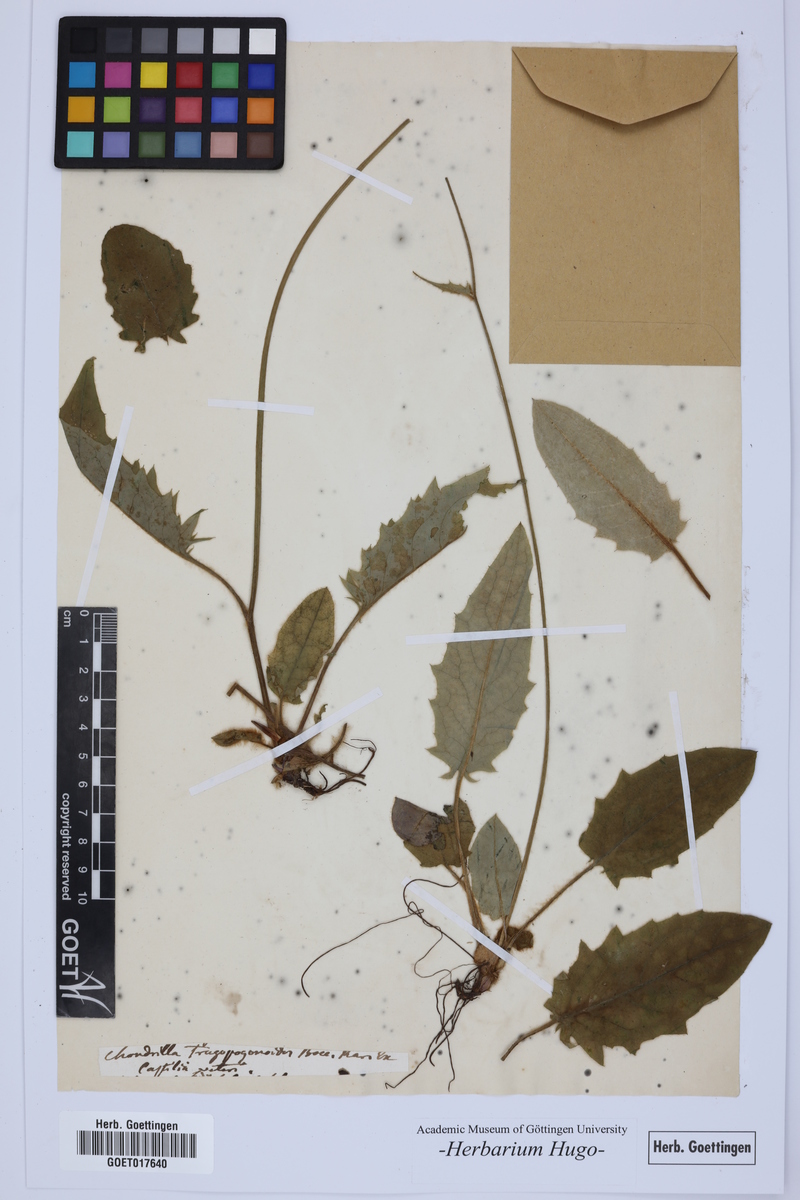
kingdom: Plantae
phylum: Tracheophyta
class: Magnoliopsida
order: Asterales
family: Asteraceae
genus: Chondrilla
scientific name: Chondrilla
